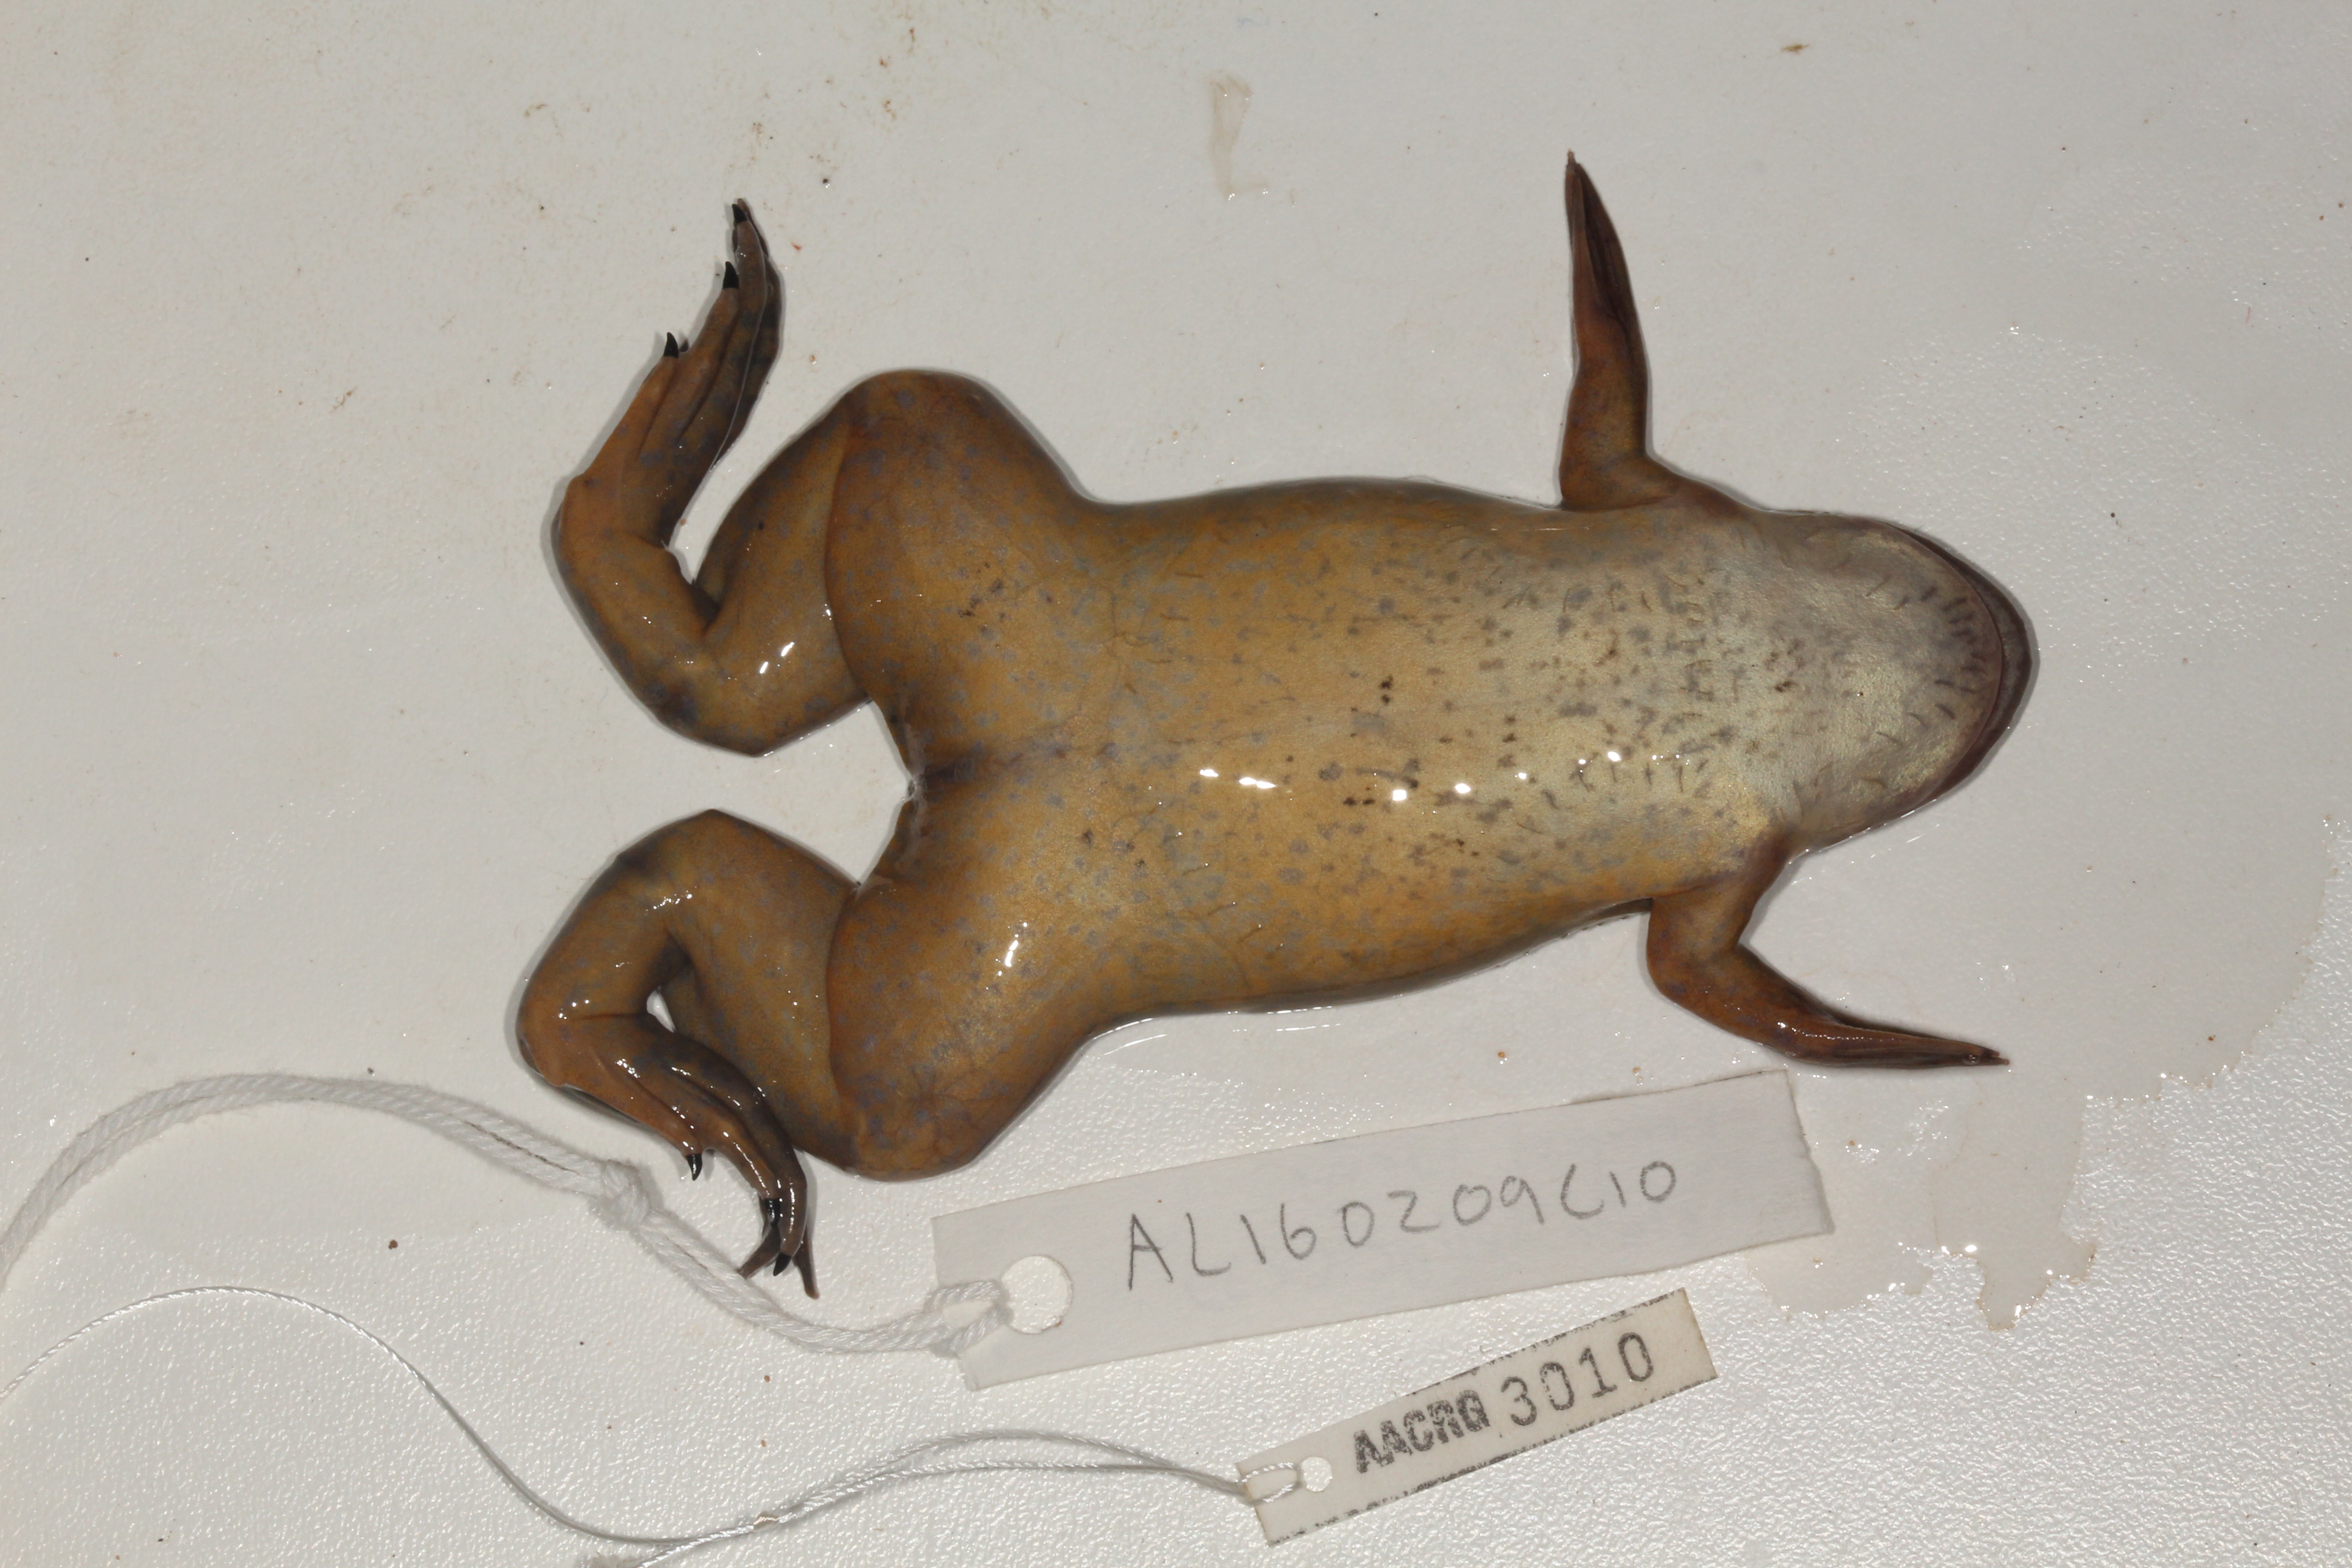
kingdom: Animalia
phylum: Chordata
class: Amphibia
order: Anura
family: Pipidae
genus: Xenopus
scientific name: Xenopus laevis
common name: African clawed frog
